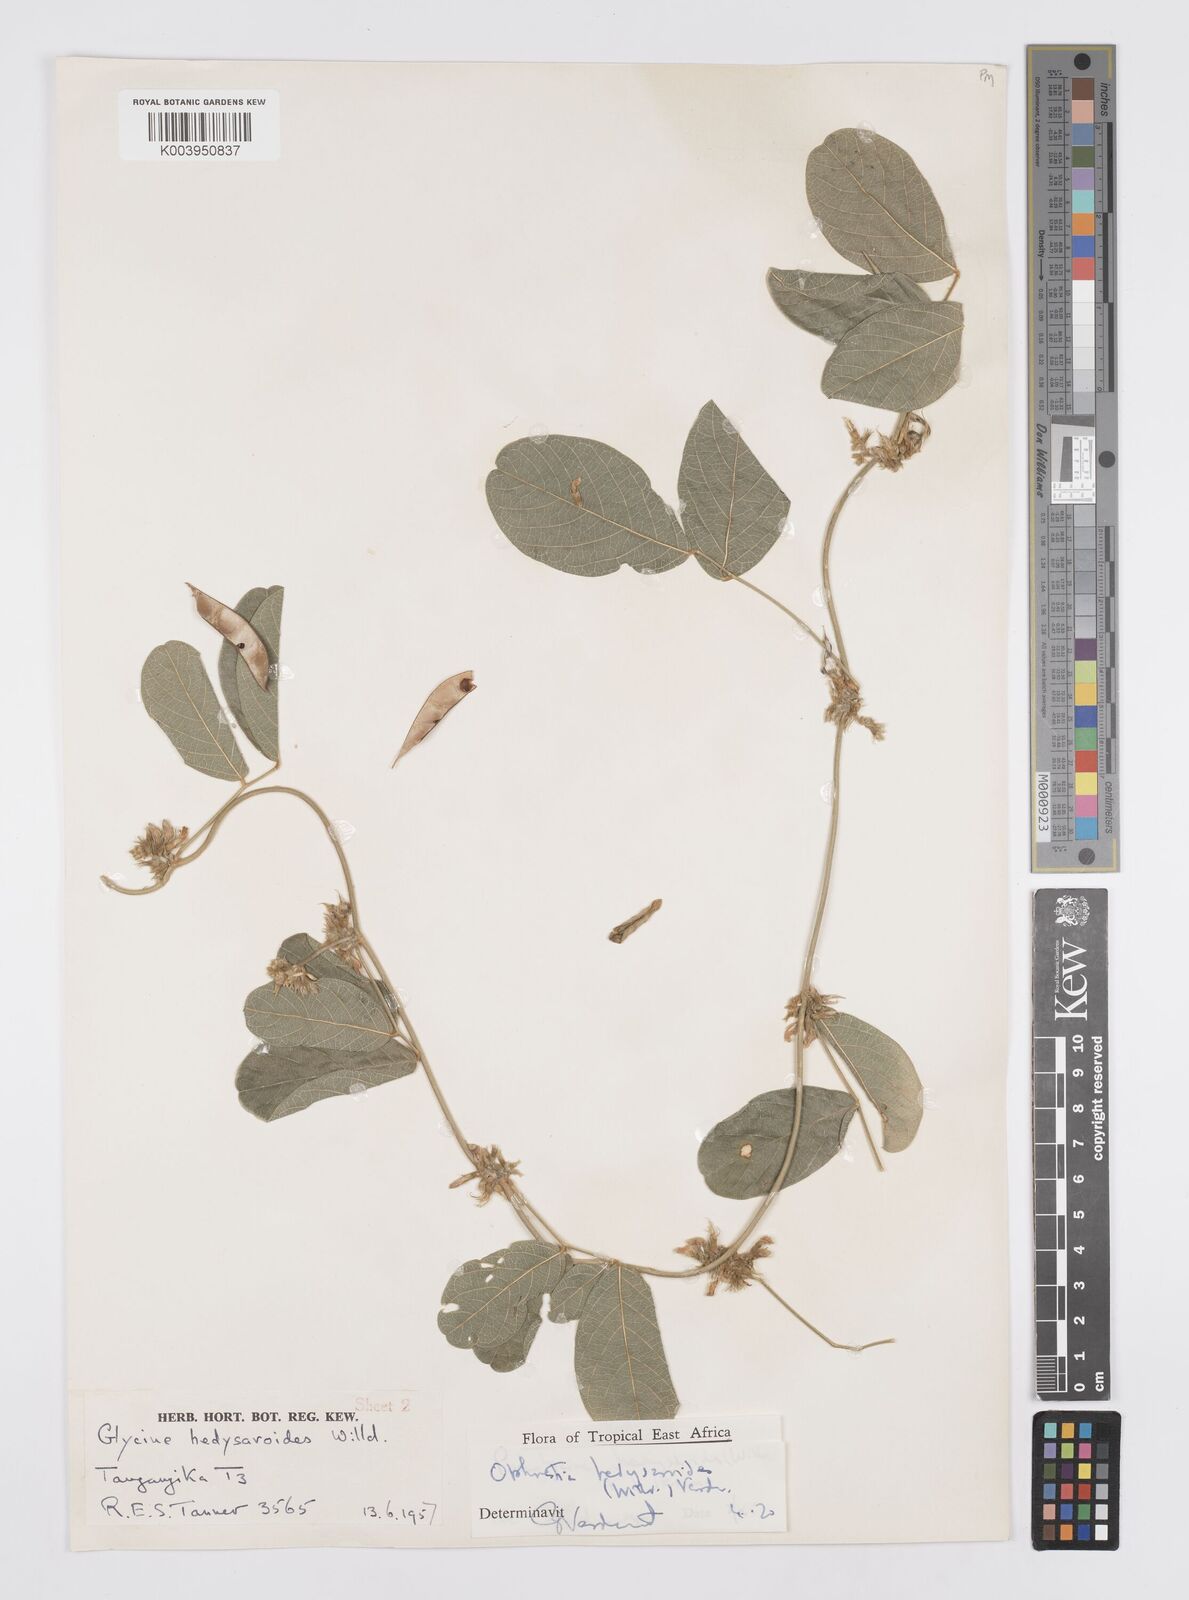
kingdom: Plantae
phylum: Tracheophyta
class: Magnoliopsida
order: Fabales
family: Fabaceae
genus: Ophrestia
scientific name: Ophrestia hedysaroides
